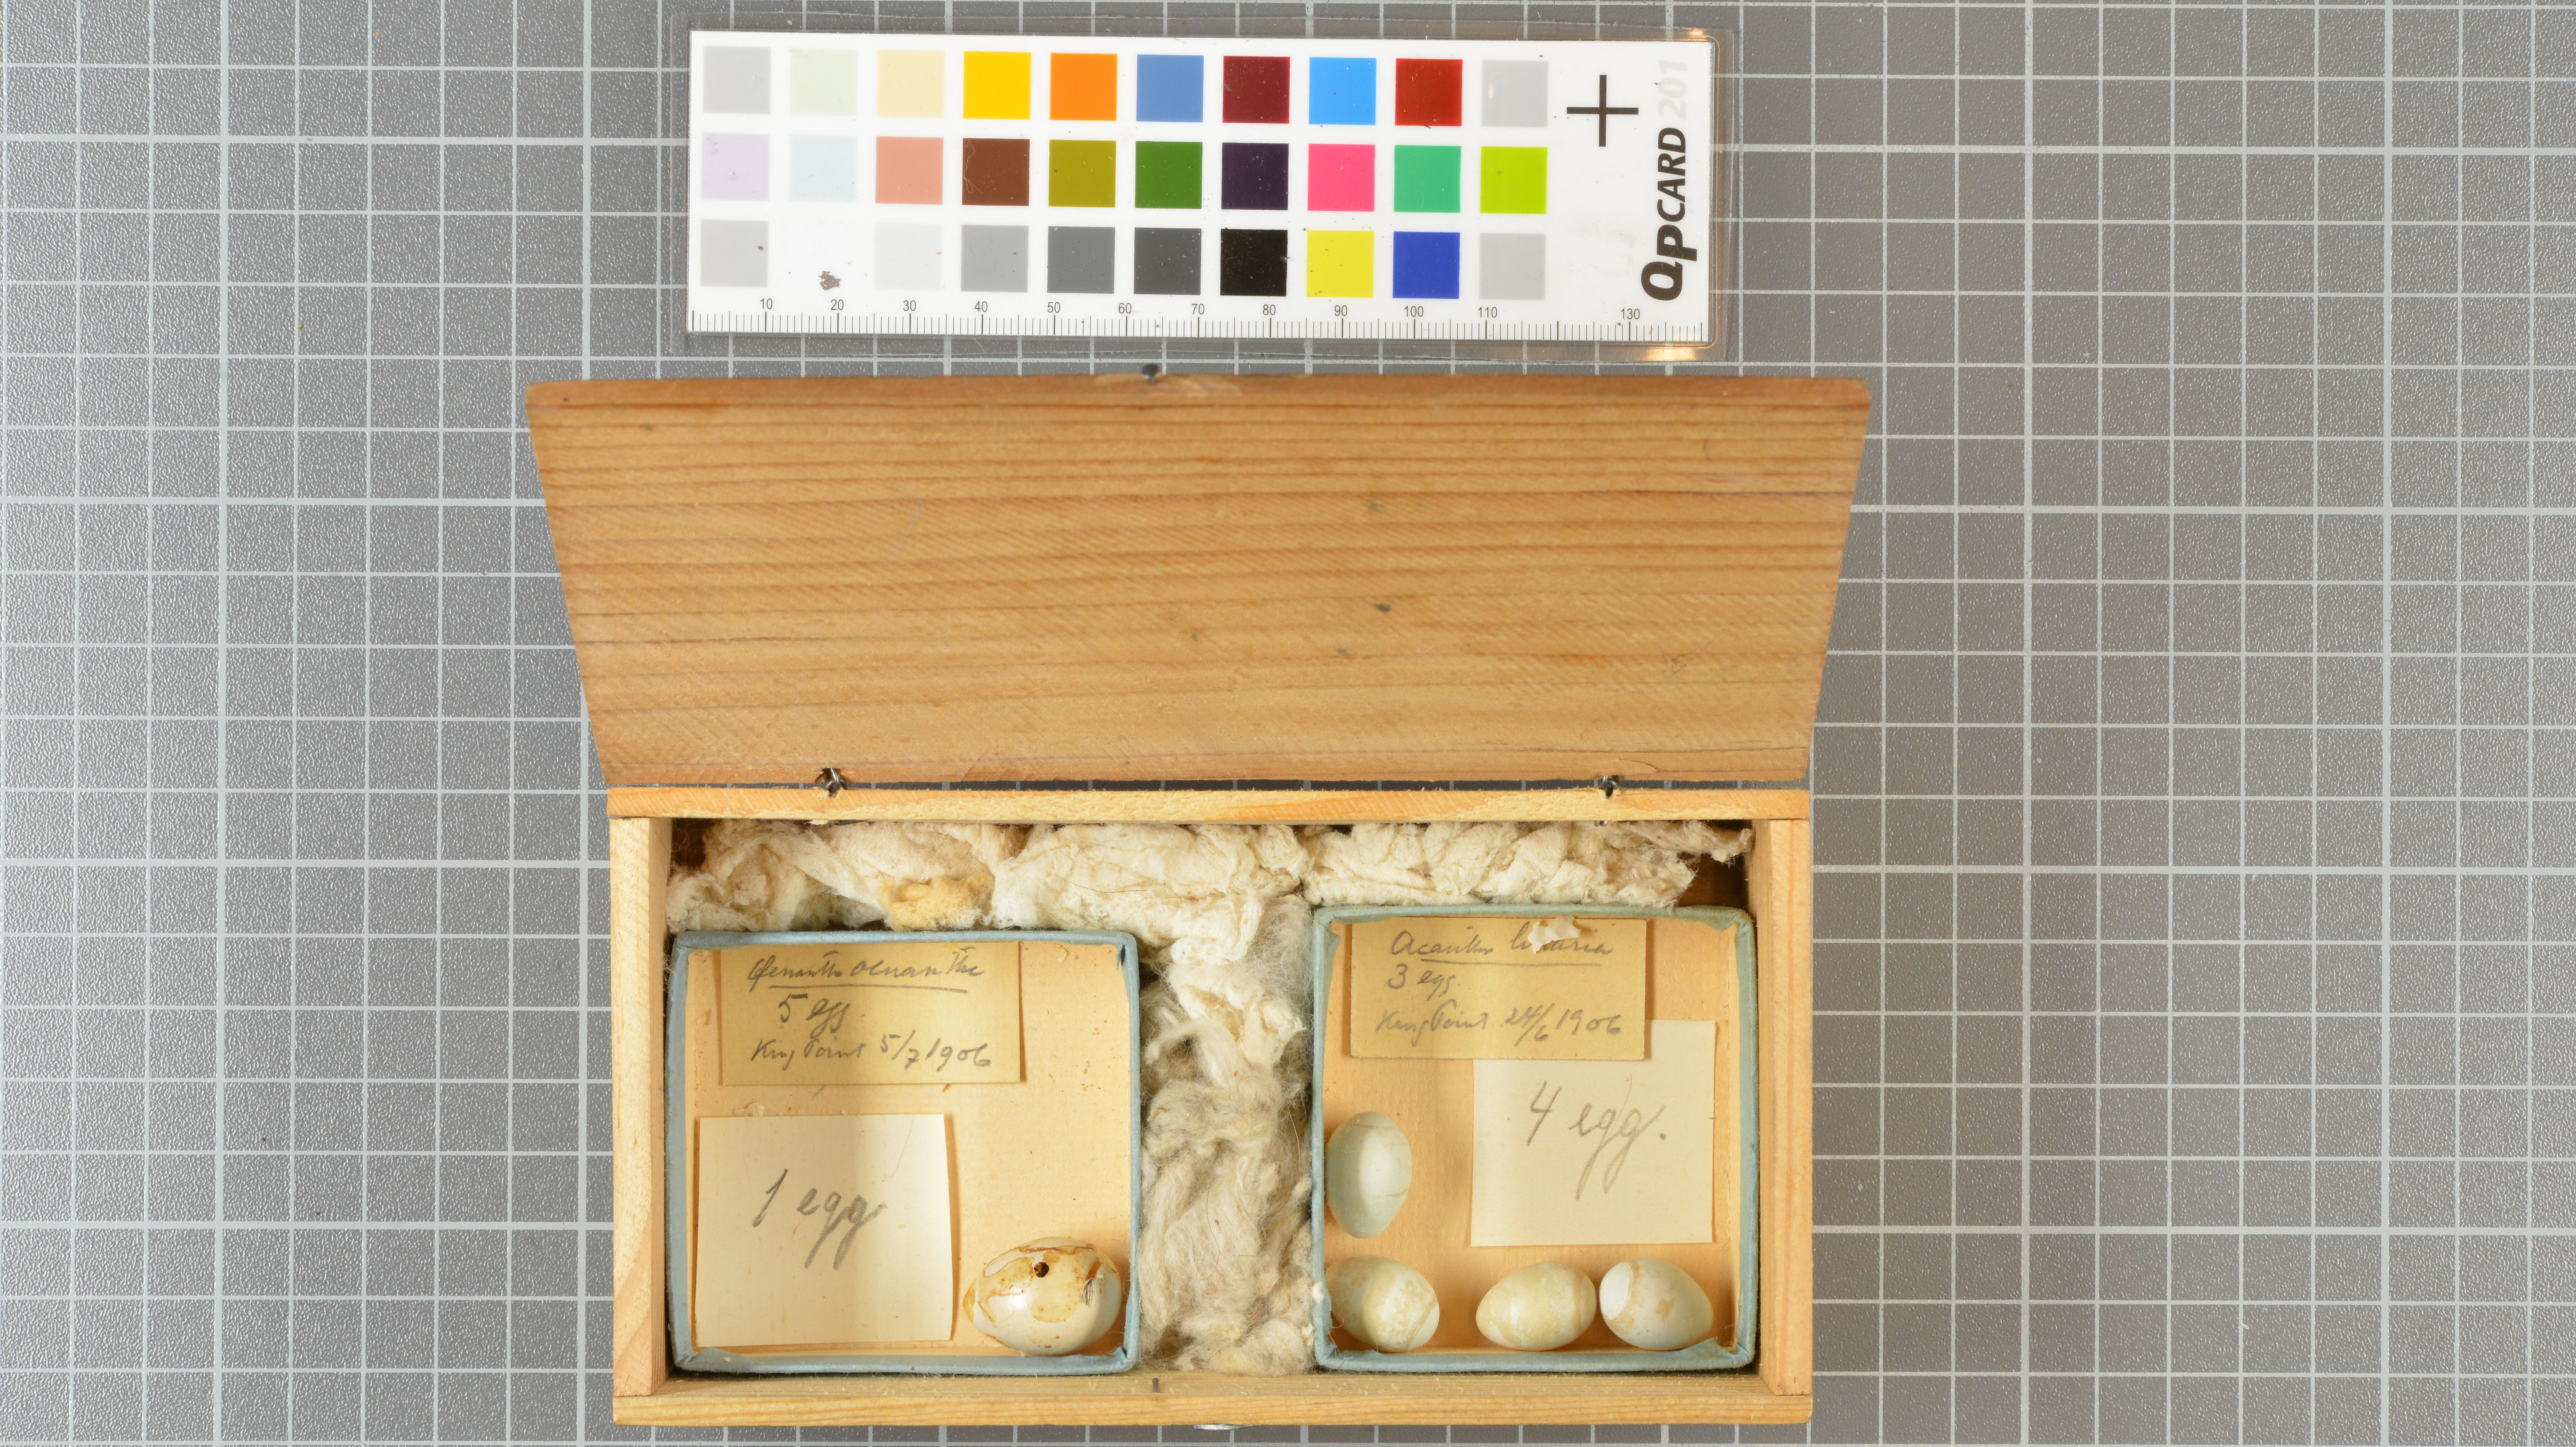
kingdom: Animalia
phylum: Chordata
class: Aves
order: Passeriformes
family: Muscicapidae
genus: Oenanthe
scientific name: Oenanthe oenanthe
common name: Northern wheatear
